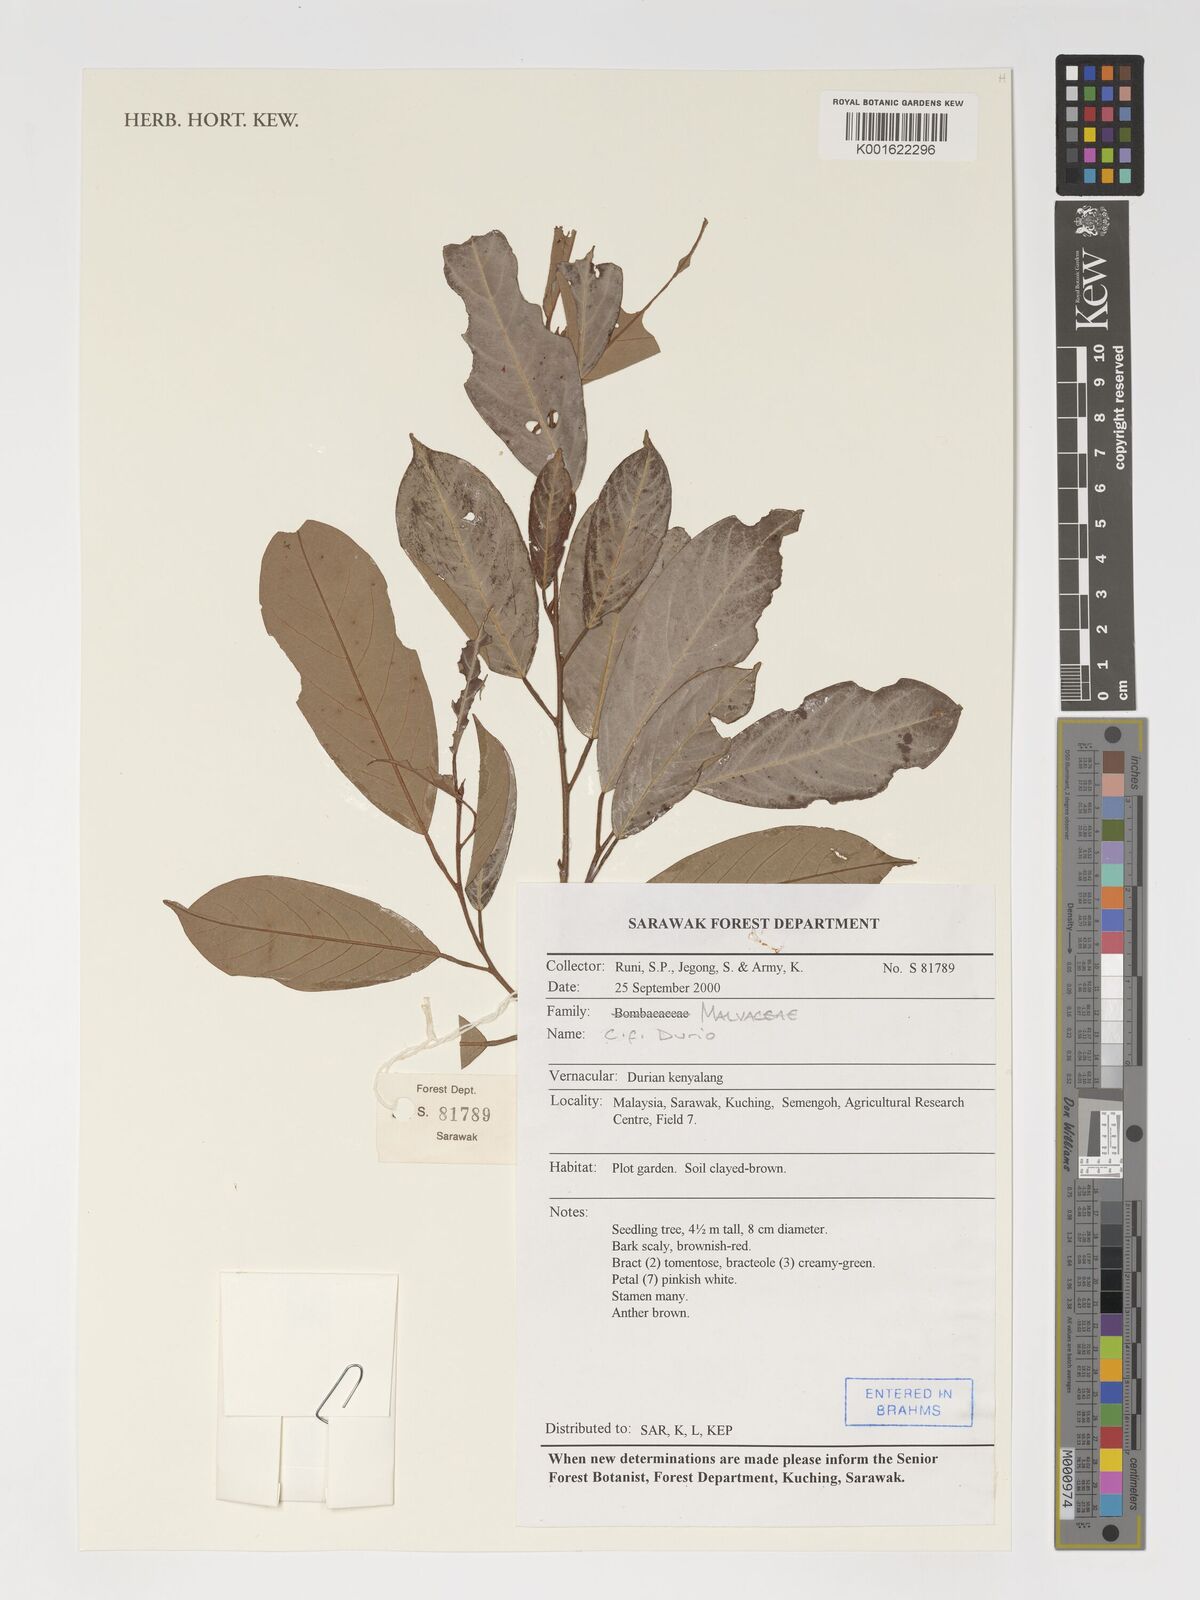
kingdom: Plantae
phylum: Tracheophyta
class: Magnoliopsida
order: Malvales
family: Malvaceae
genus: Durio
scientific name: Durio
